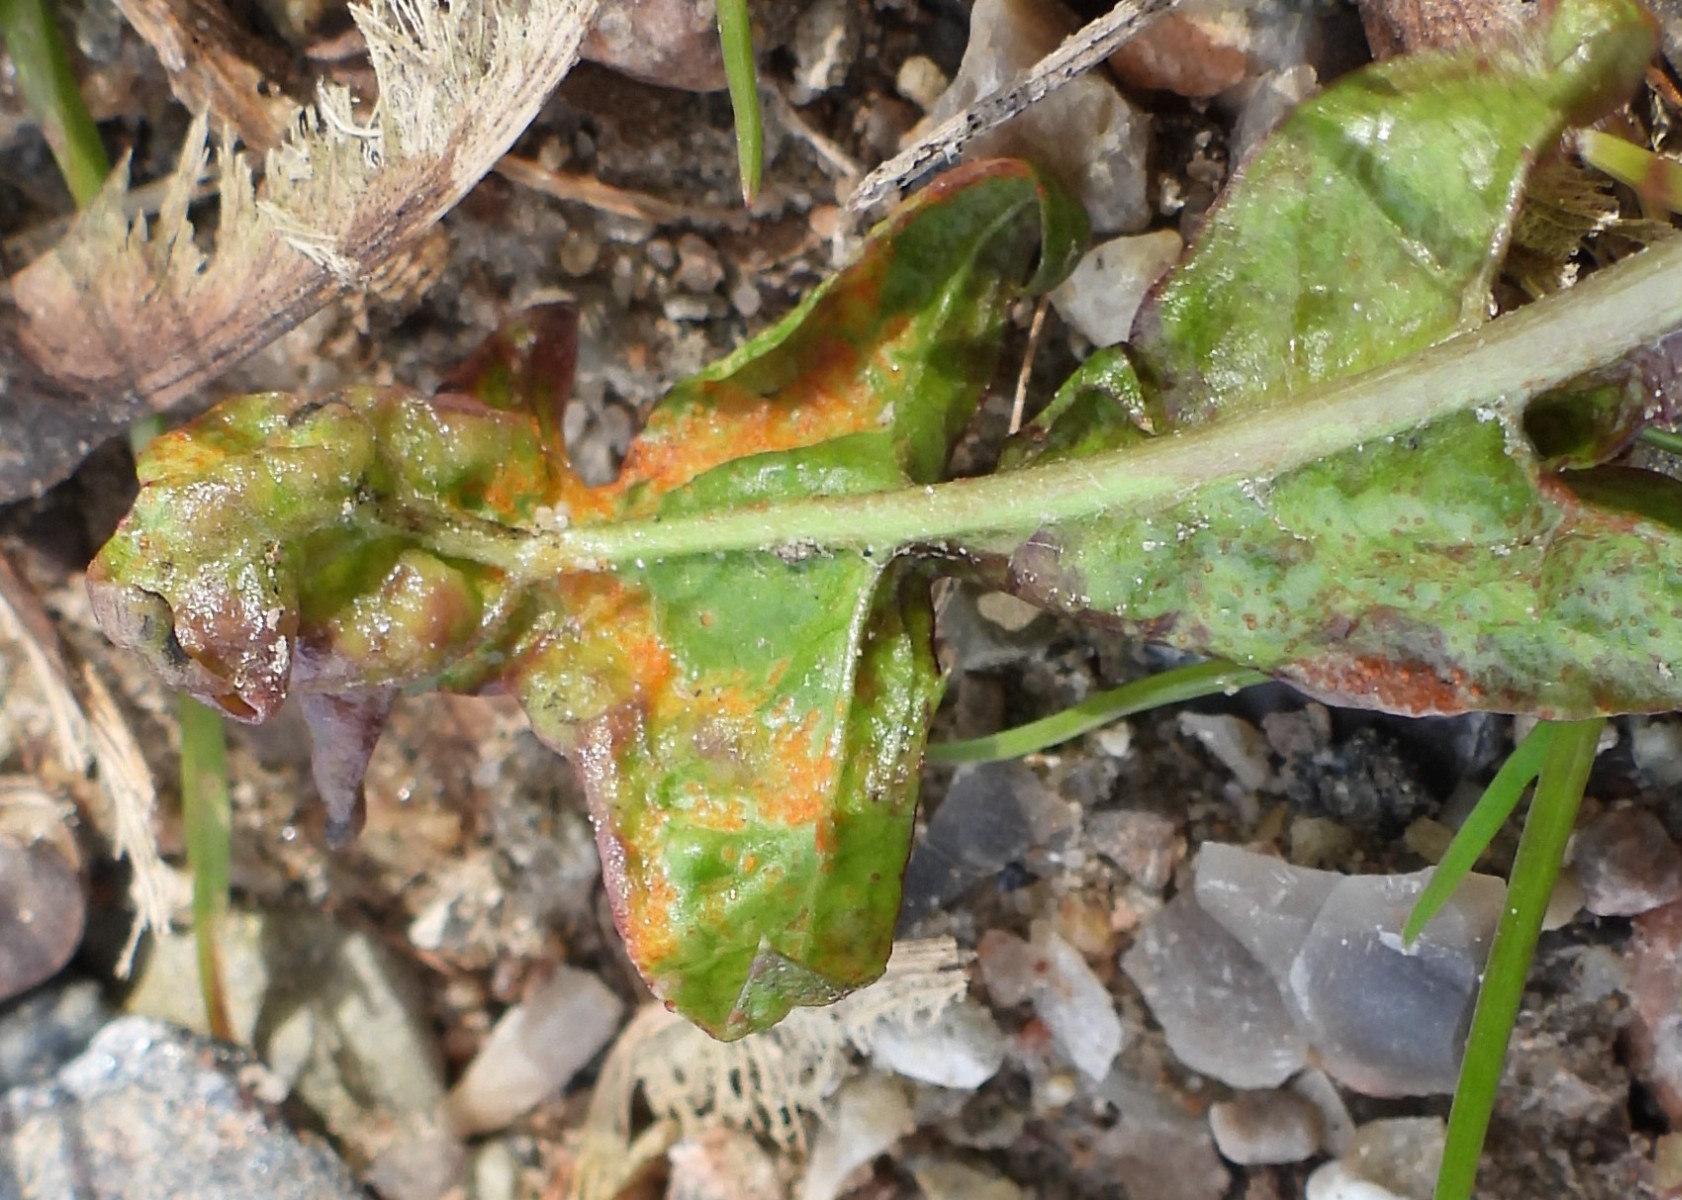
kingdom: Fungi
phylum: Chytridiomycota
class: Chytridiomycetes
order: Chytridiales
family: Synchytriaceae
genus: Synchytrium
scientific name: Synchytrium taraxaci
